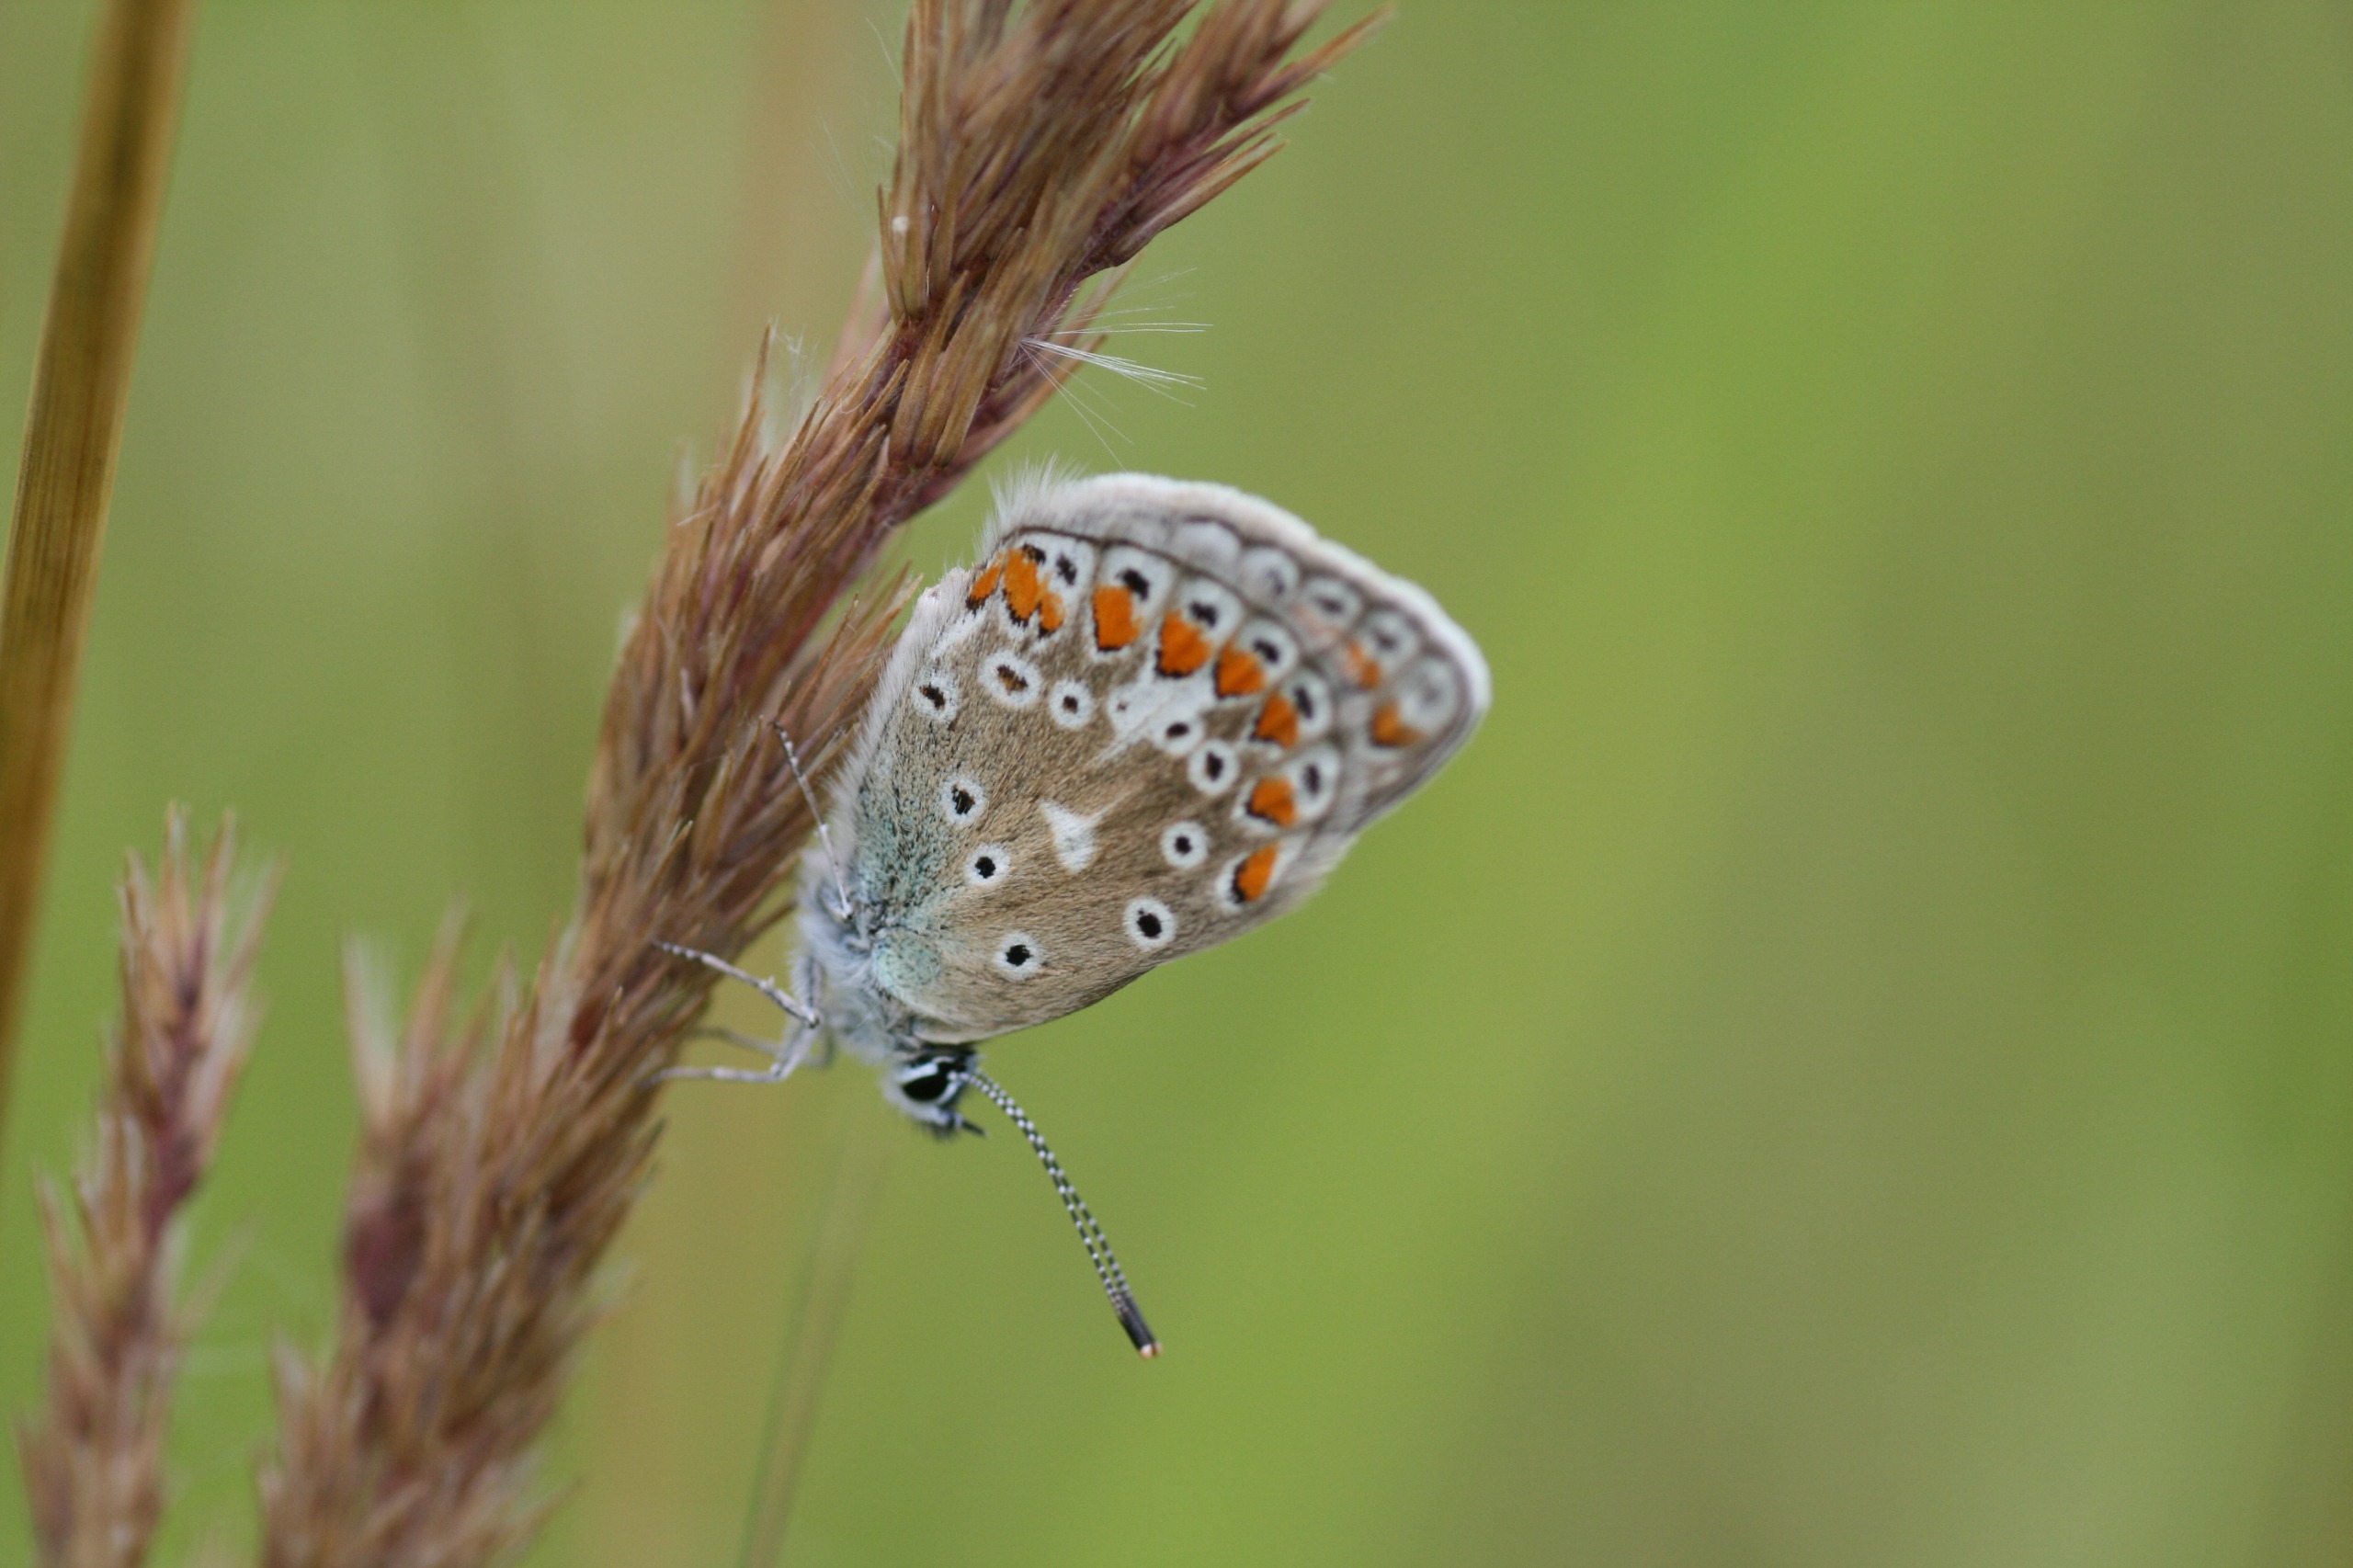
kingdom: Animalia
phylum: Arthropoda
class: Insecta
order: Lepidoptera
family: Lycaenidae
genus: Polyommatus
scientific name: Polyommatus icarus
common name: Almindelig blåfugl
